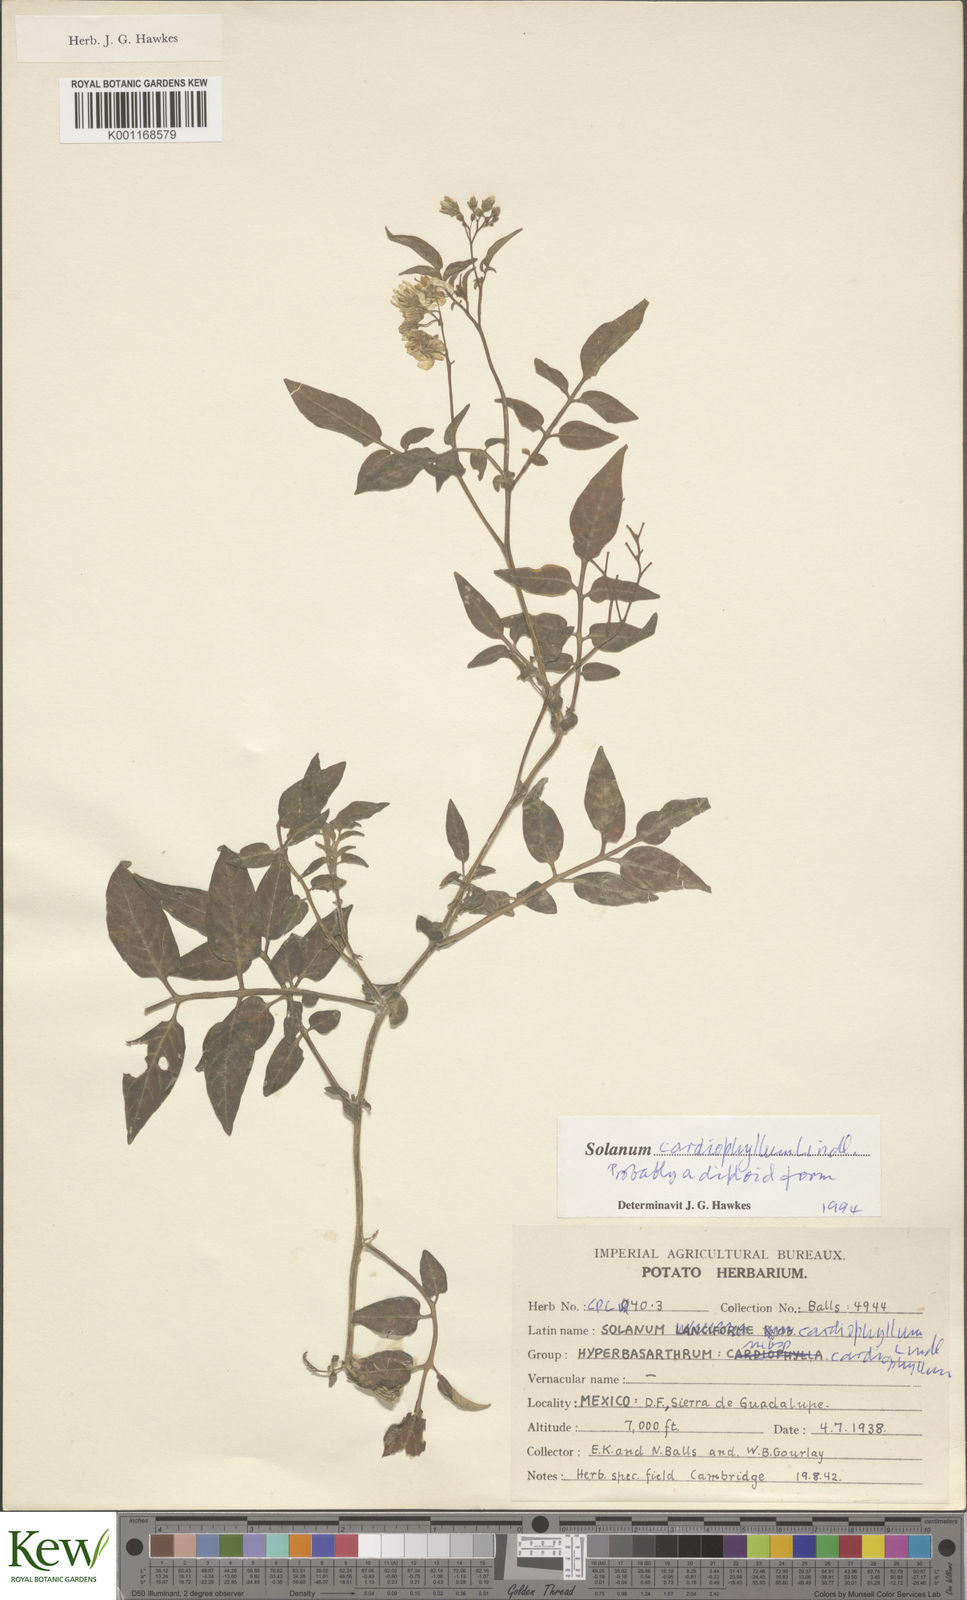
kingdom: Plantae
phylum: Tracheophyta
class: Magnoliopsida
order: Solanales
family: Solanaceae
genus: Solanum
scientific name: Solanum cardiophyllum
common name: Heartleaf horsenettle
